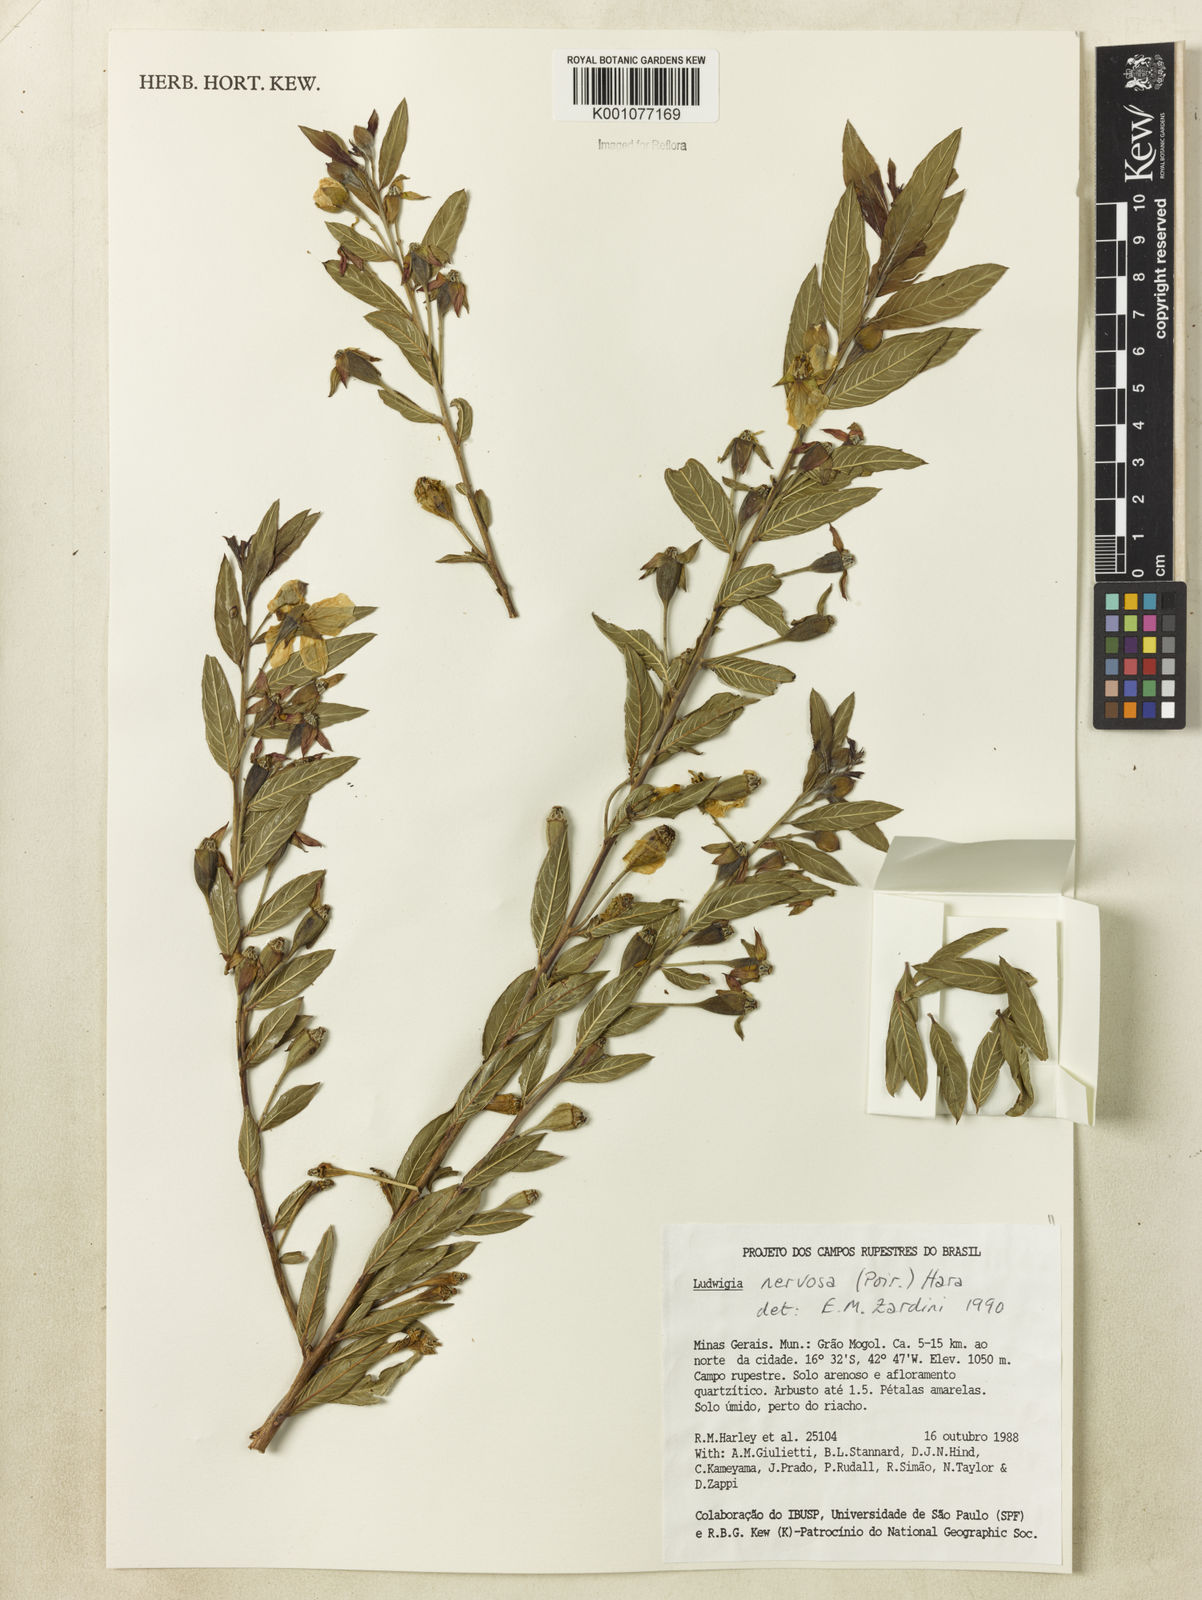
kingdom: Plantae
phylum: Tracheophyta
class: Magnoliopsida
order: Myrtales
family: Onagraceae
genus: Ludwigia
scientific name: Ludwigia nervosa
